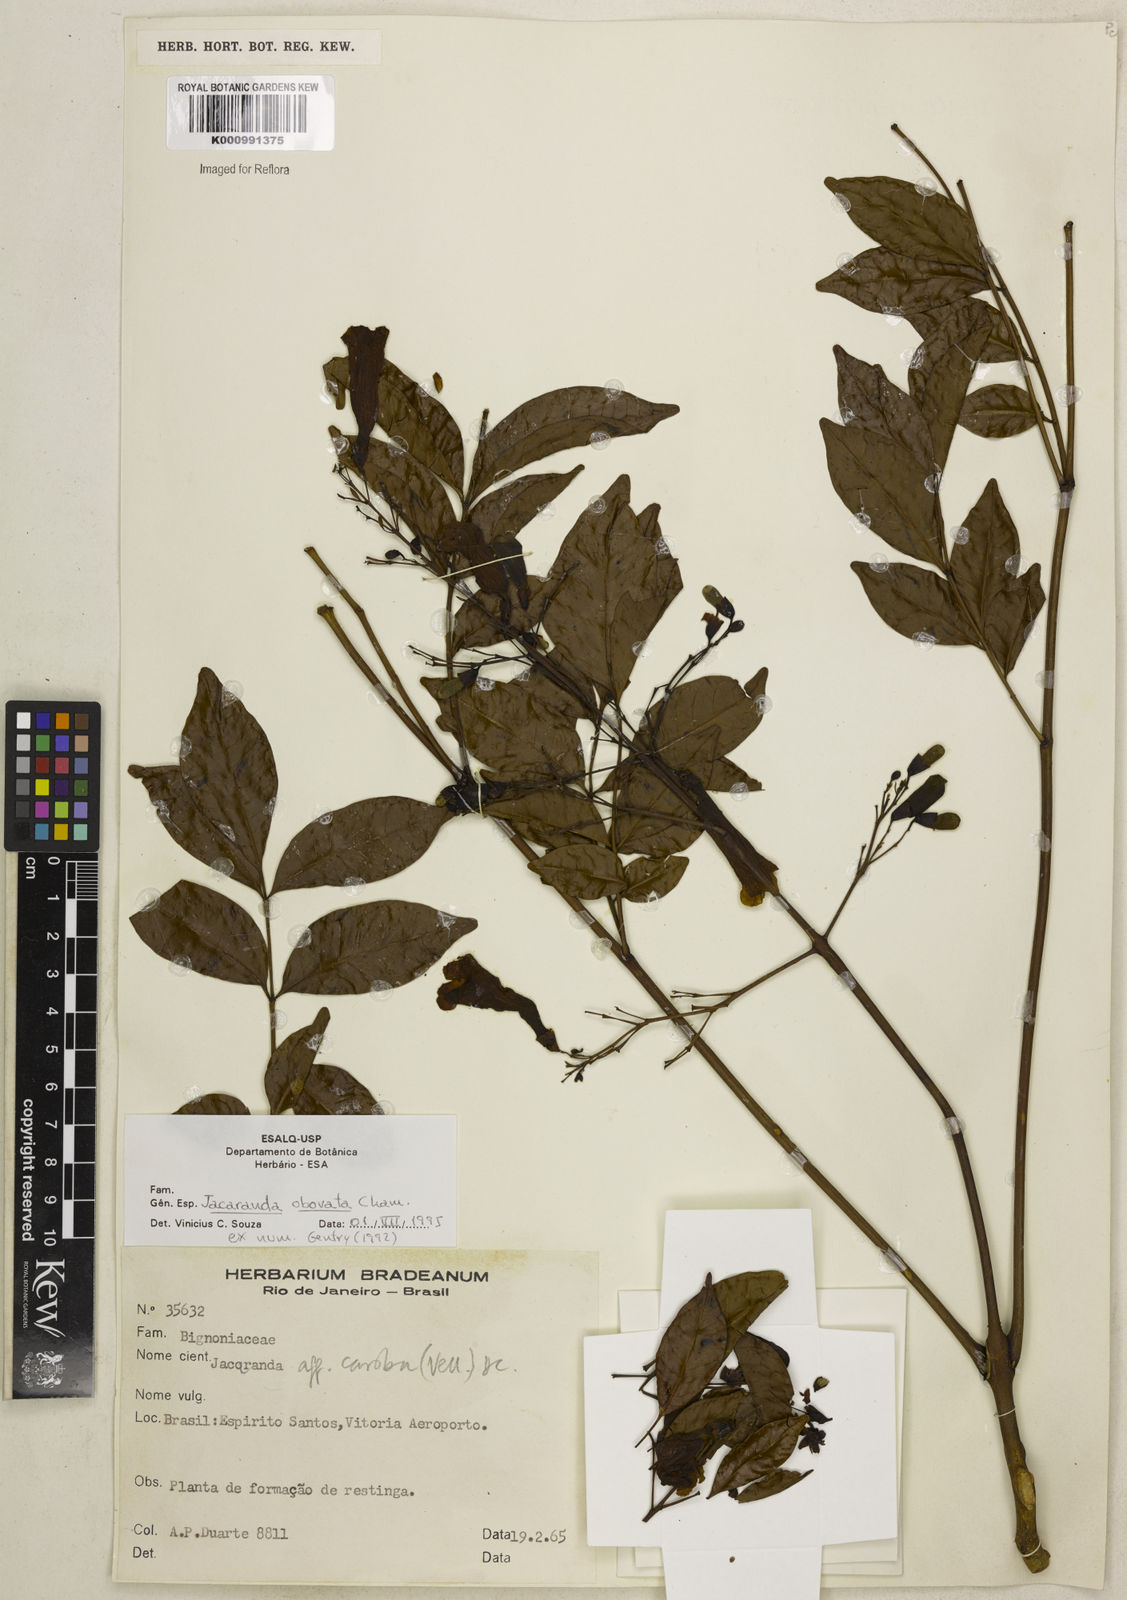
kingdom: Plantae
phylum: Tracheophyta
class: Magnoliopsida
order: Lamiales
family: Bignoniaceae
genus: Jacaranda
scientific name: Jacaranda obovata
